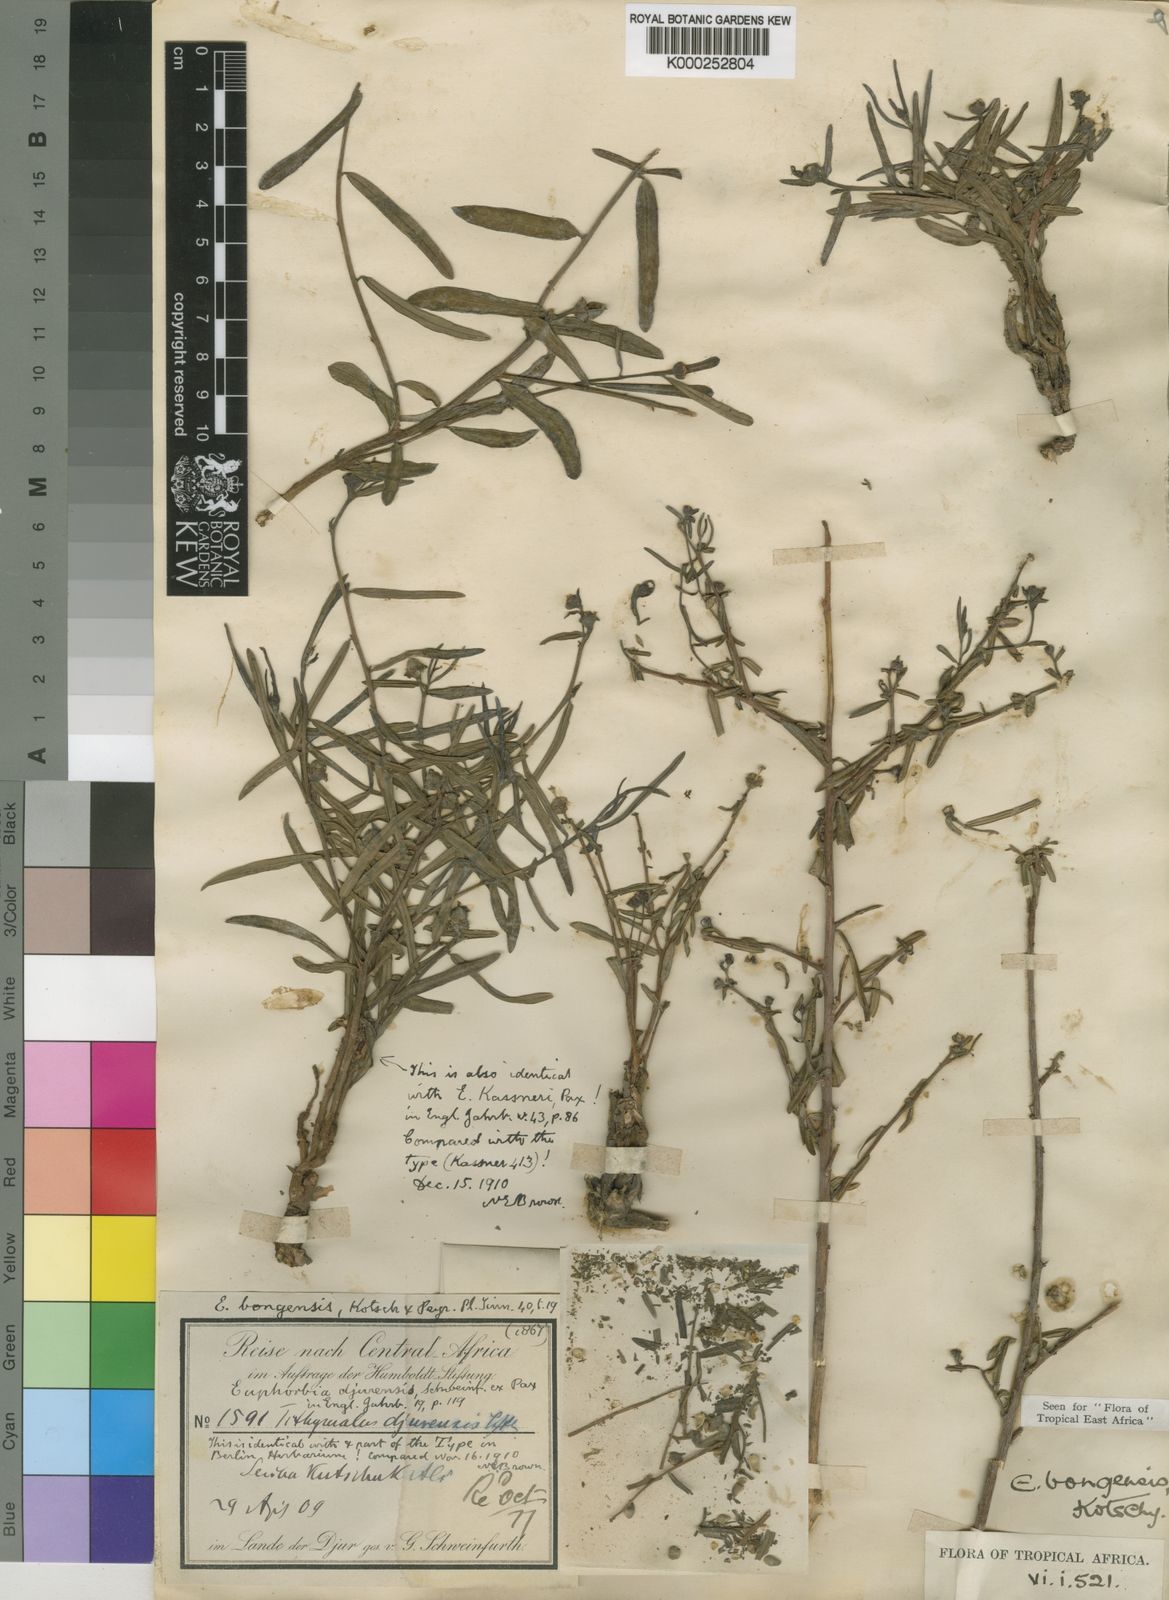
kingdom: Plantae
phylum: Tracheophyta
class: Magnoliopsida
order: Malpighiales
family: Euphorbiaceae
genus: Euphorbia
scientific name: Euphorbia bongensis
